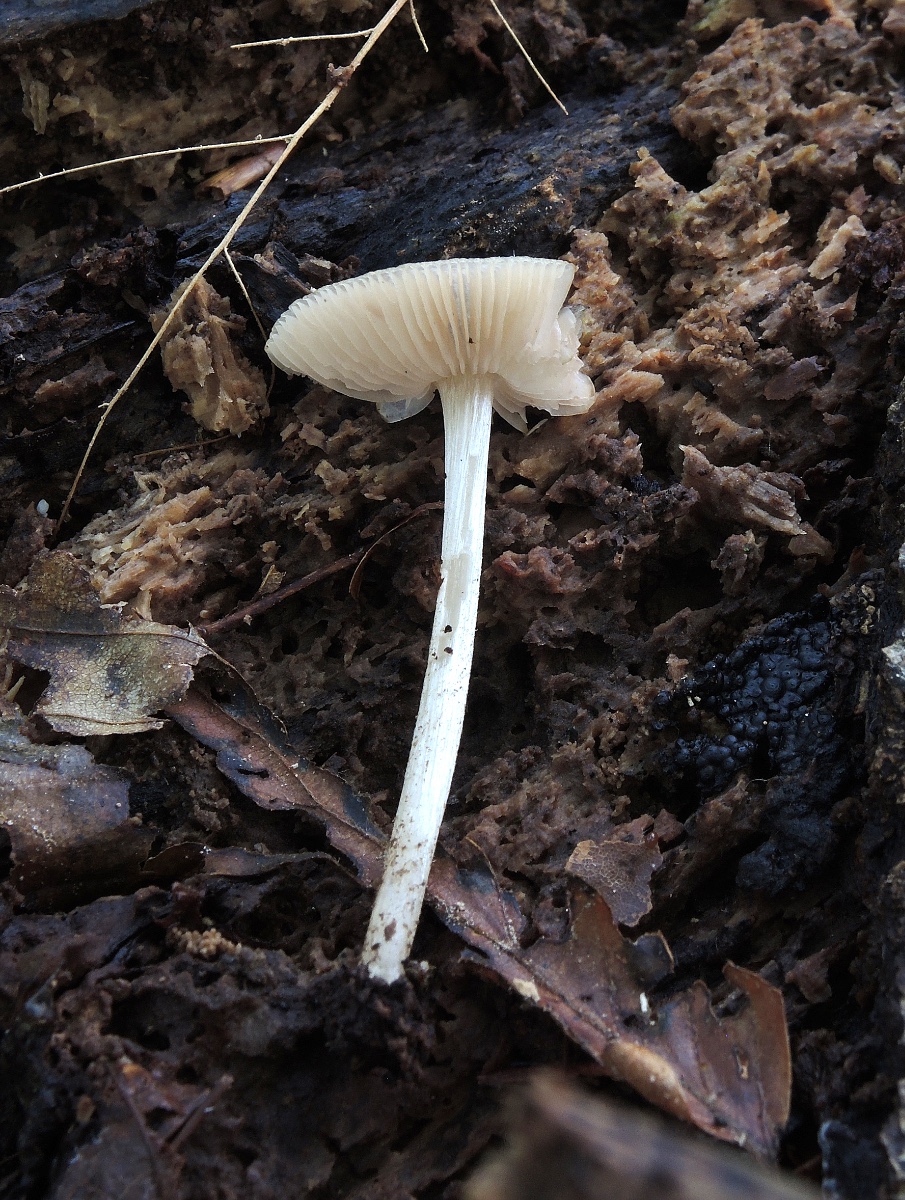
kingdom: Fungi
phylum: Basidiomycota
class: Agaricomycetes
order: Agaricales
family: Pluteaceae
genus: Pluteus
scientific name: Pluteus reisneri
